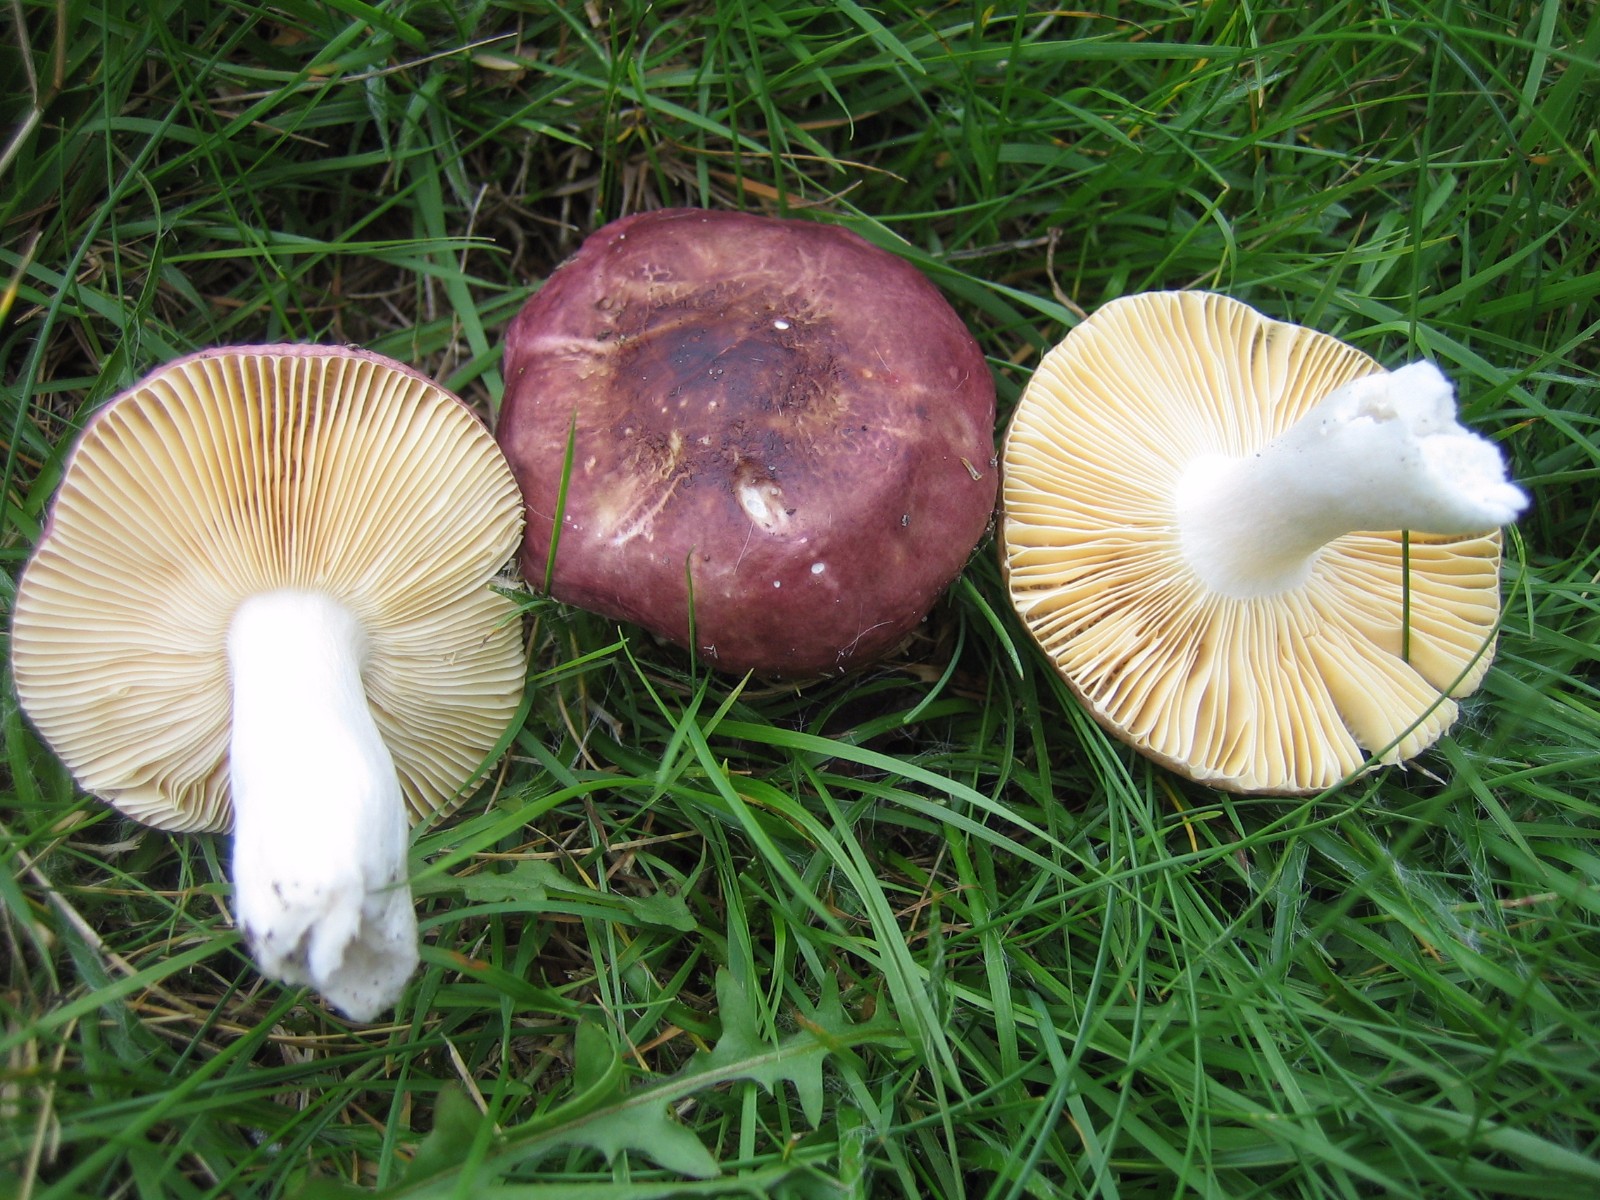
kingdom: Fungi
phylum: Basidiomycota
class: Agaricomycetes
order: Russulales
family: Russulaceae
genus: Russula
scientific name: Russula cessans
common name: fyrre-skørhat
